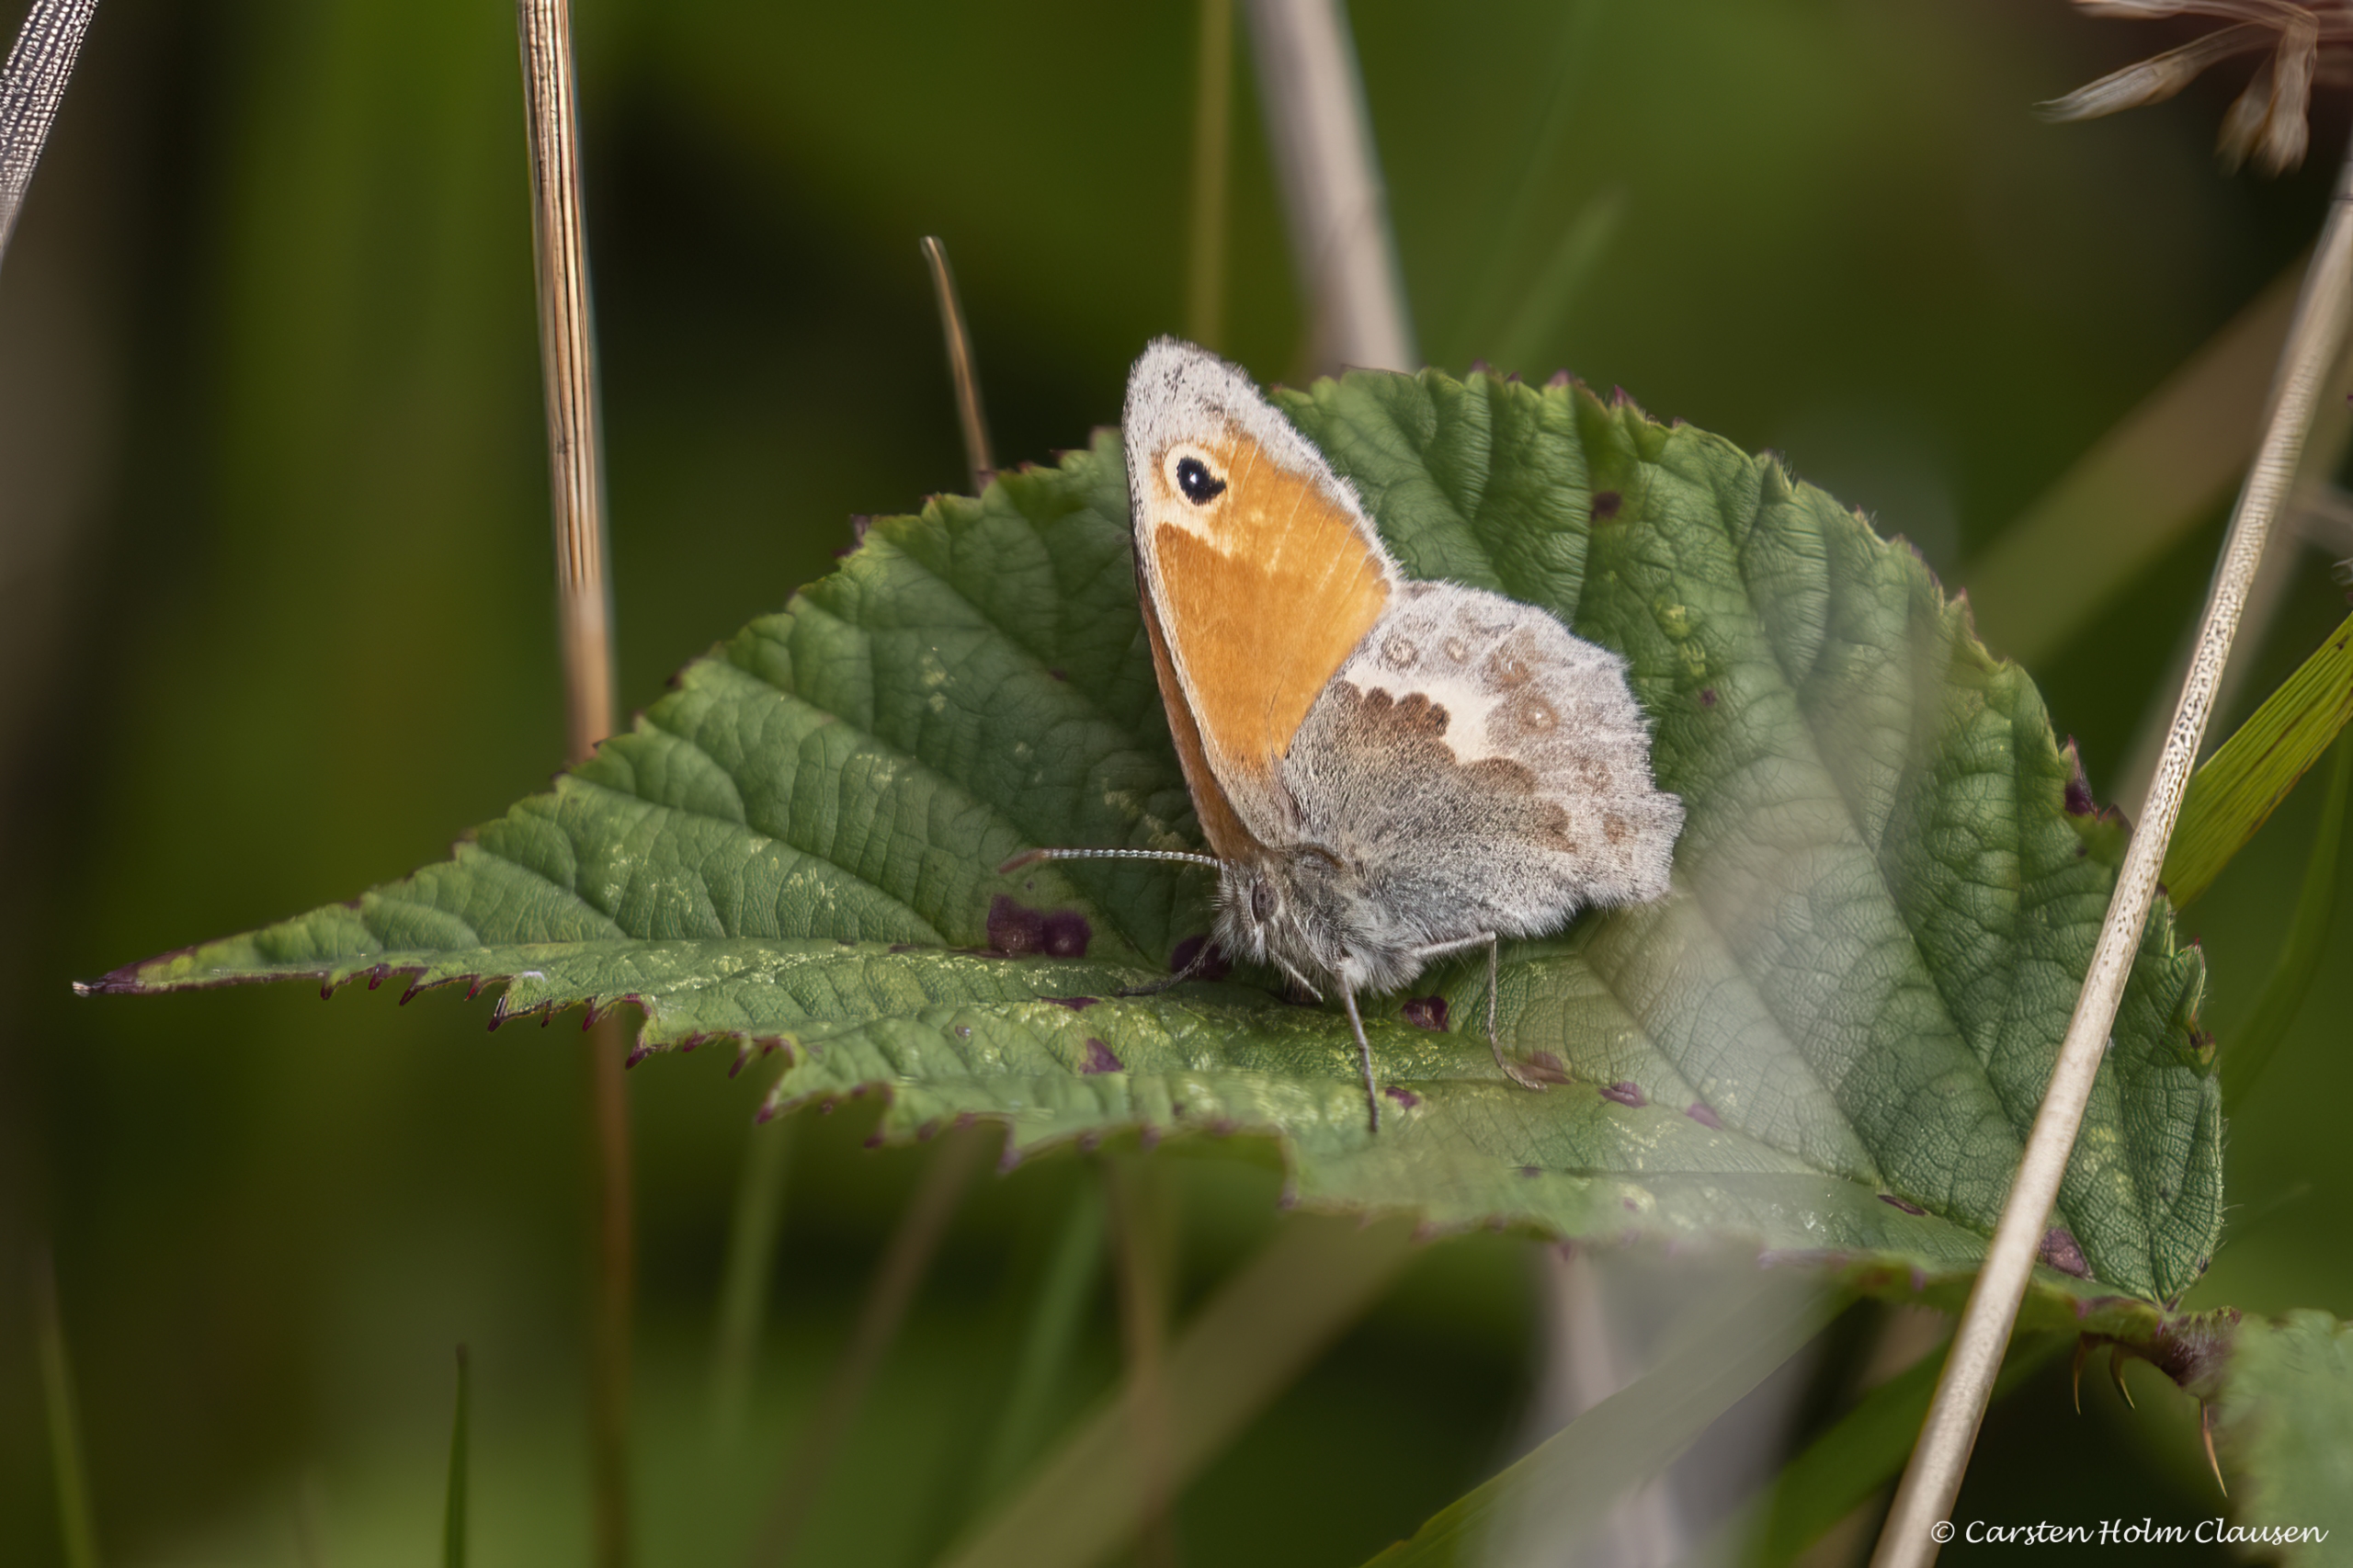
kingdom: Animalia
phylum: Arthropoda
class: Insecta
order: Lepidoptera
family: Nymphalidae
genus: Coenonympha
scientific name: Coenonympha pamphilus
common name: Okkergul randøje
